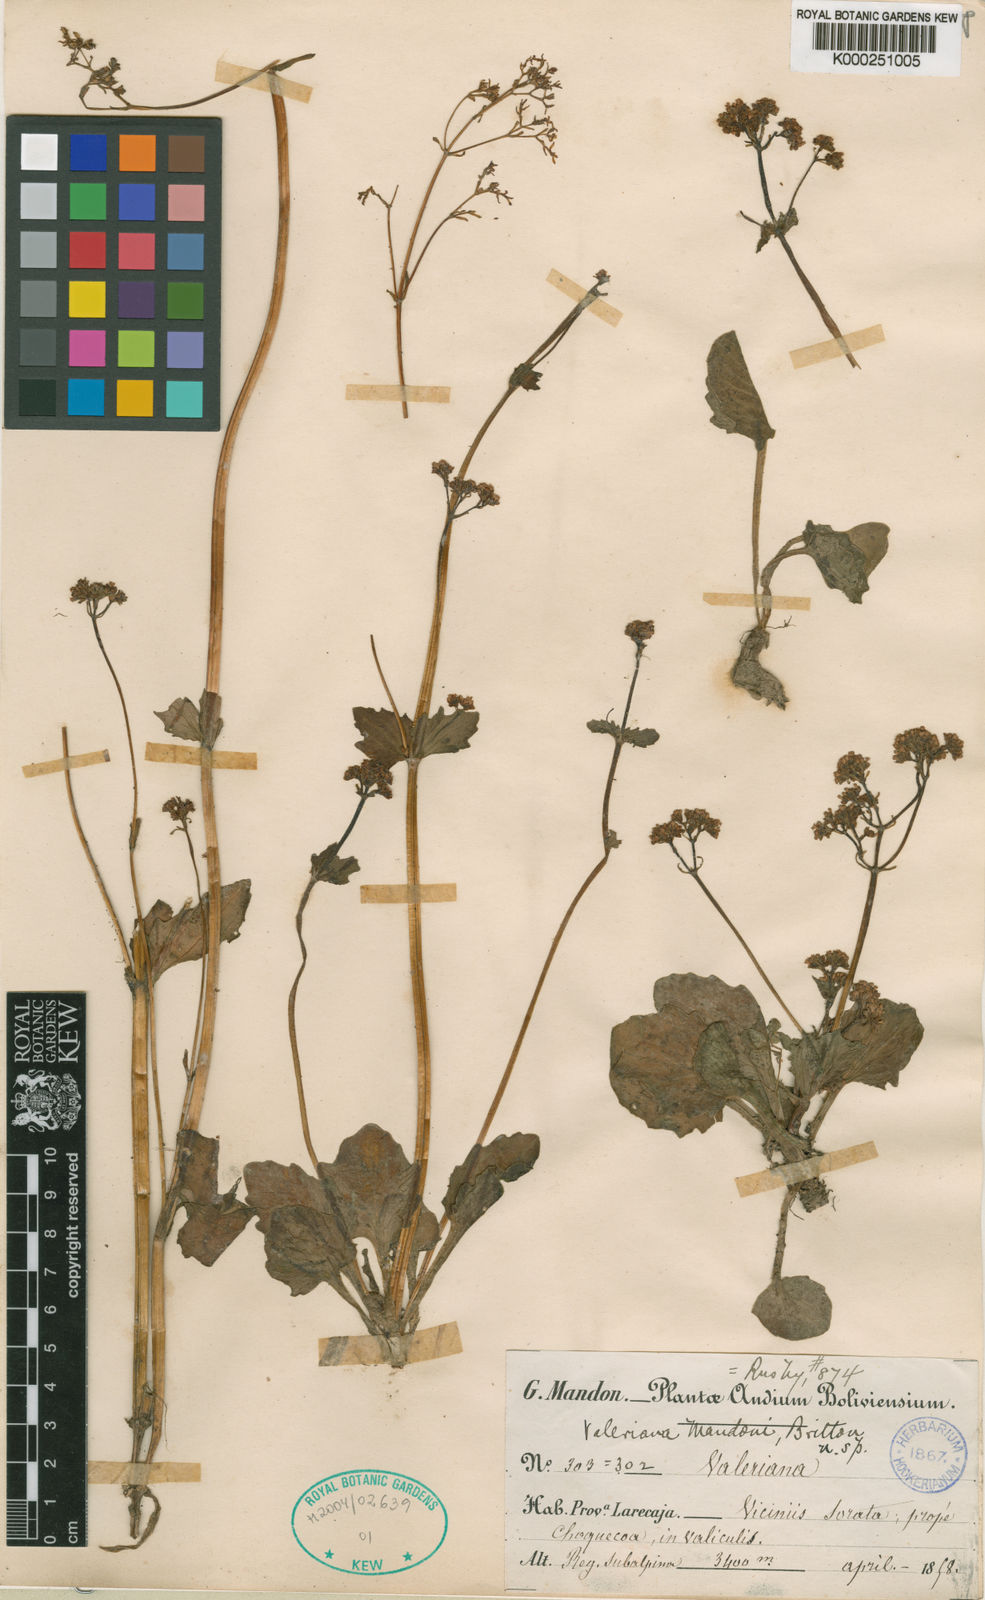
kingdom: Plantae
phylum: Tracheophyta
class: Magnoliopsida
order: Dipsacales
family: Caprifoliaceae
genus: Valeriana
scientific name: Valeriana mandonii
